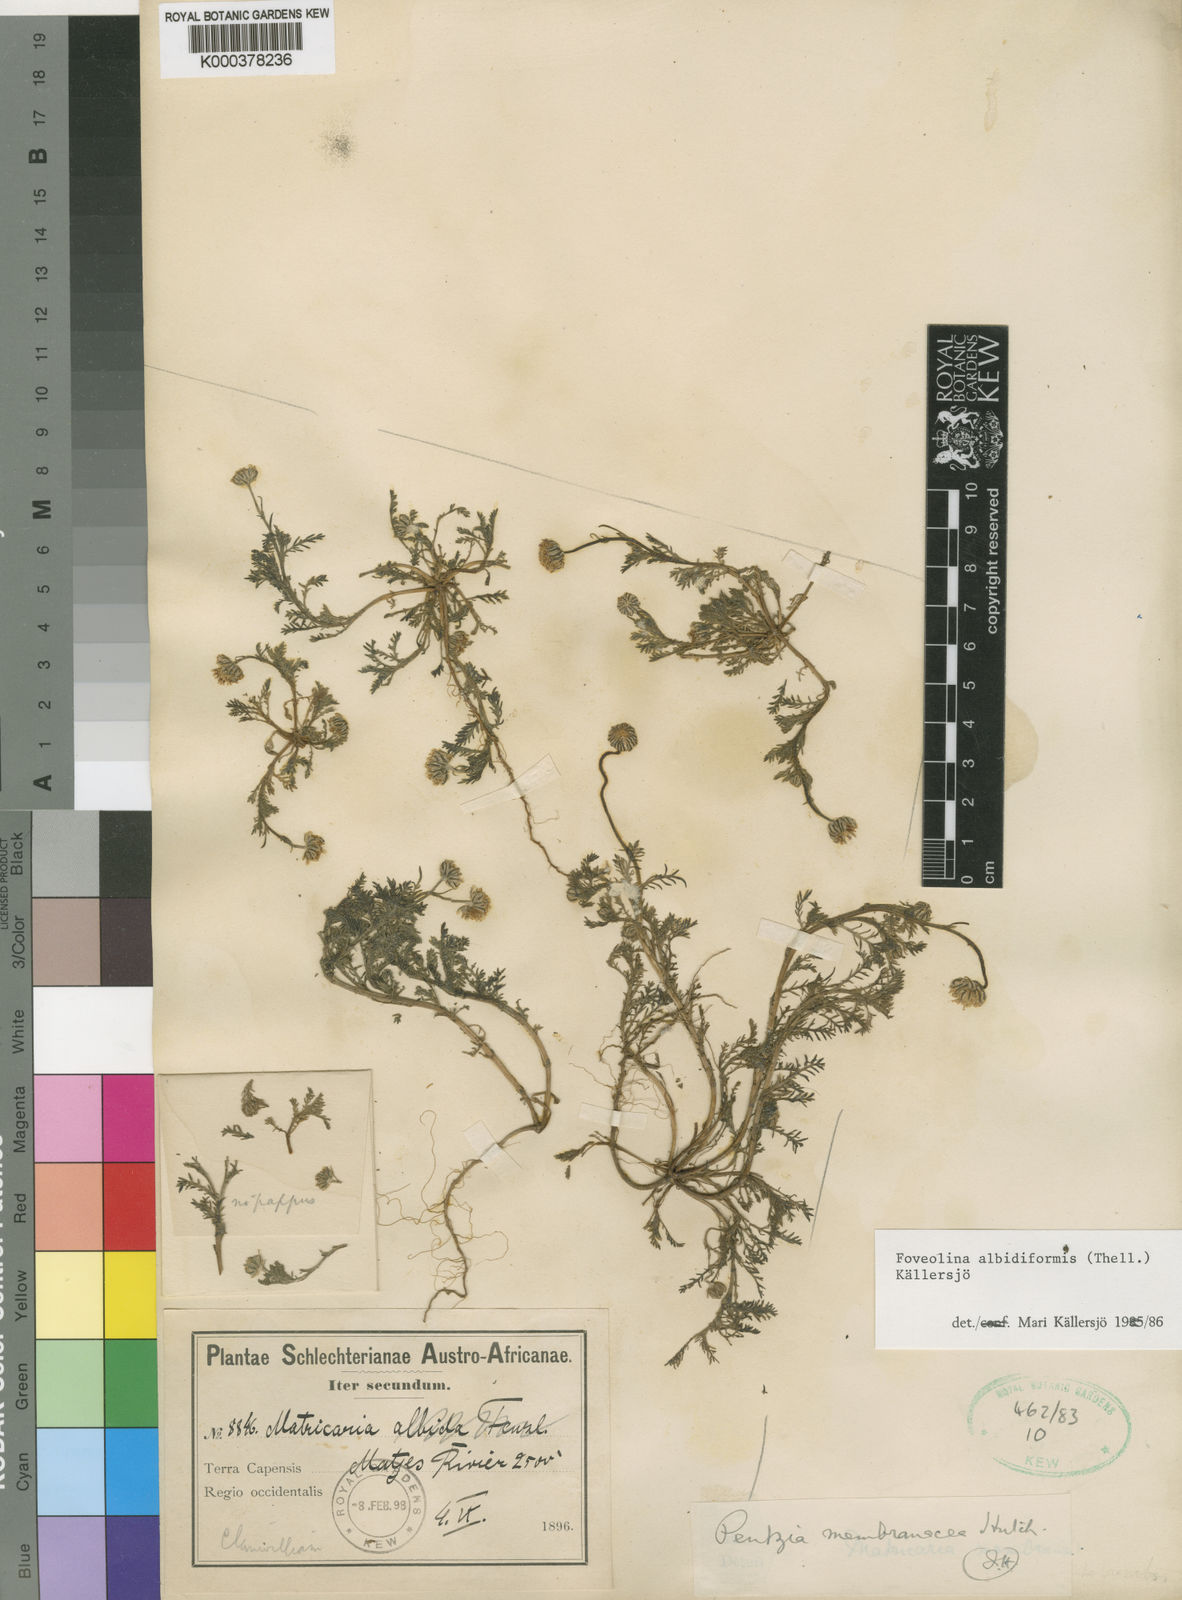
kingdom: Plantae
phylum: Tracheophyta
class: Magnoliopsida
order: Asterales
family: Asteraceae
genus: Foveolina
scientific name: Foveolina
